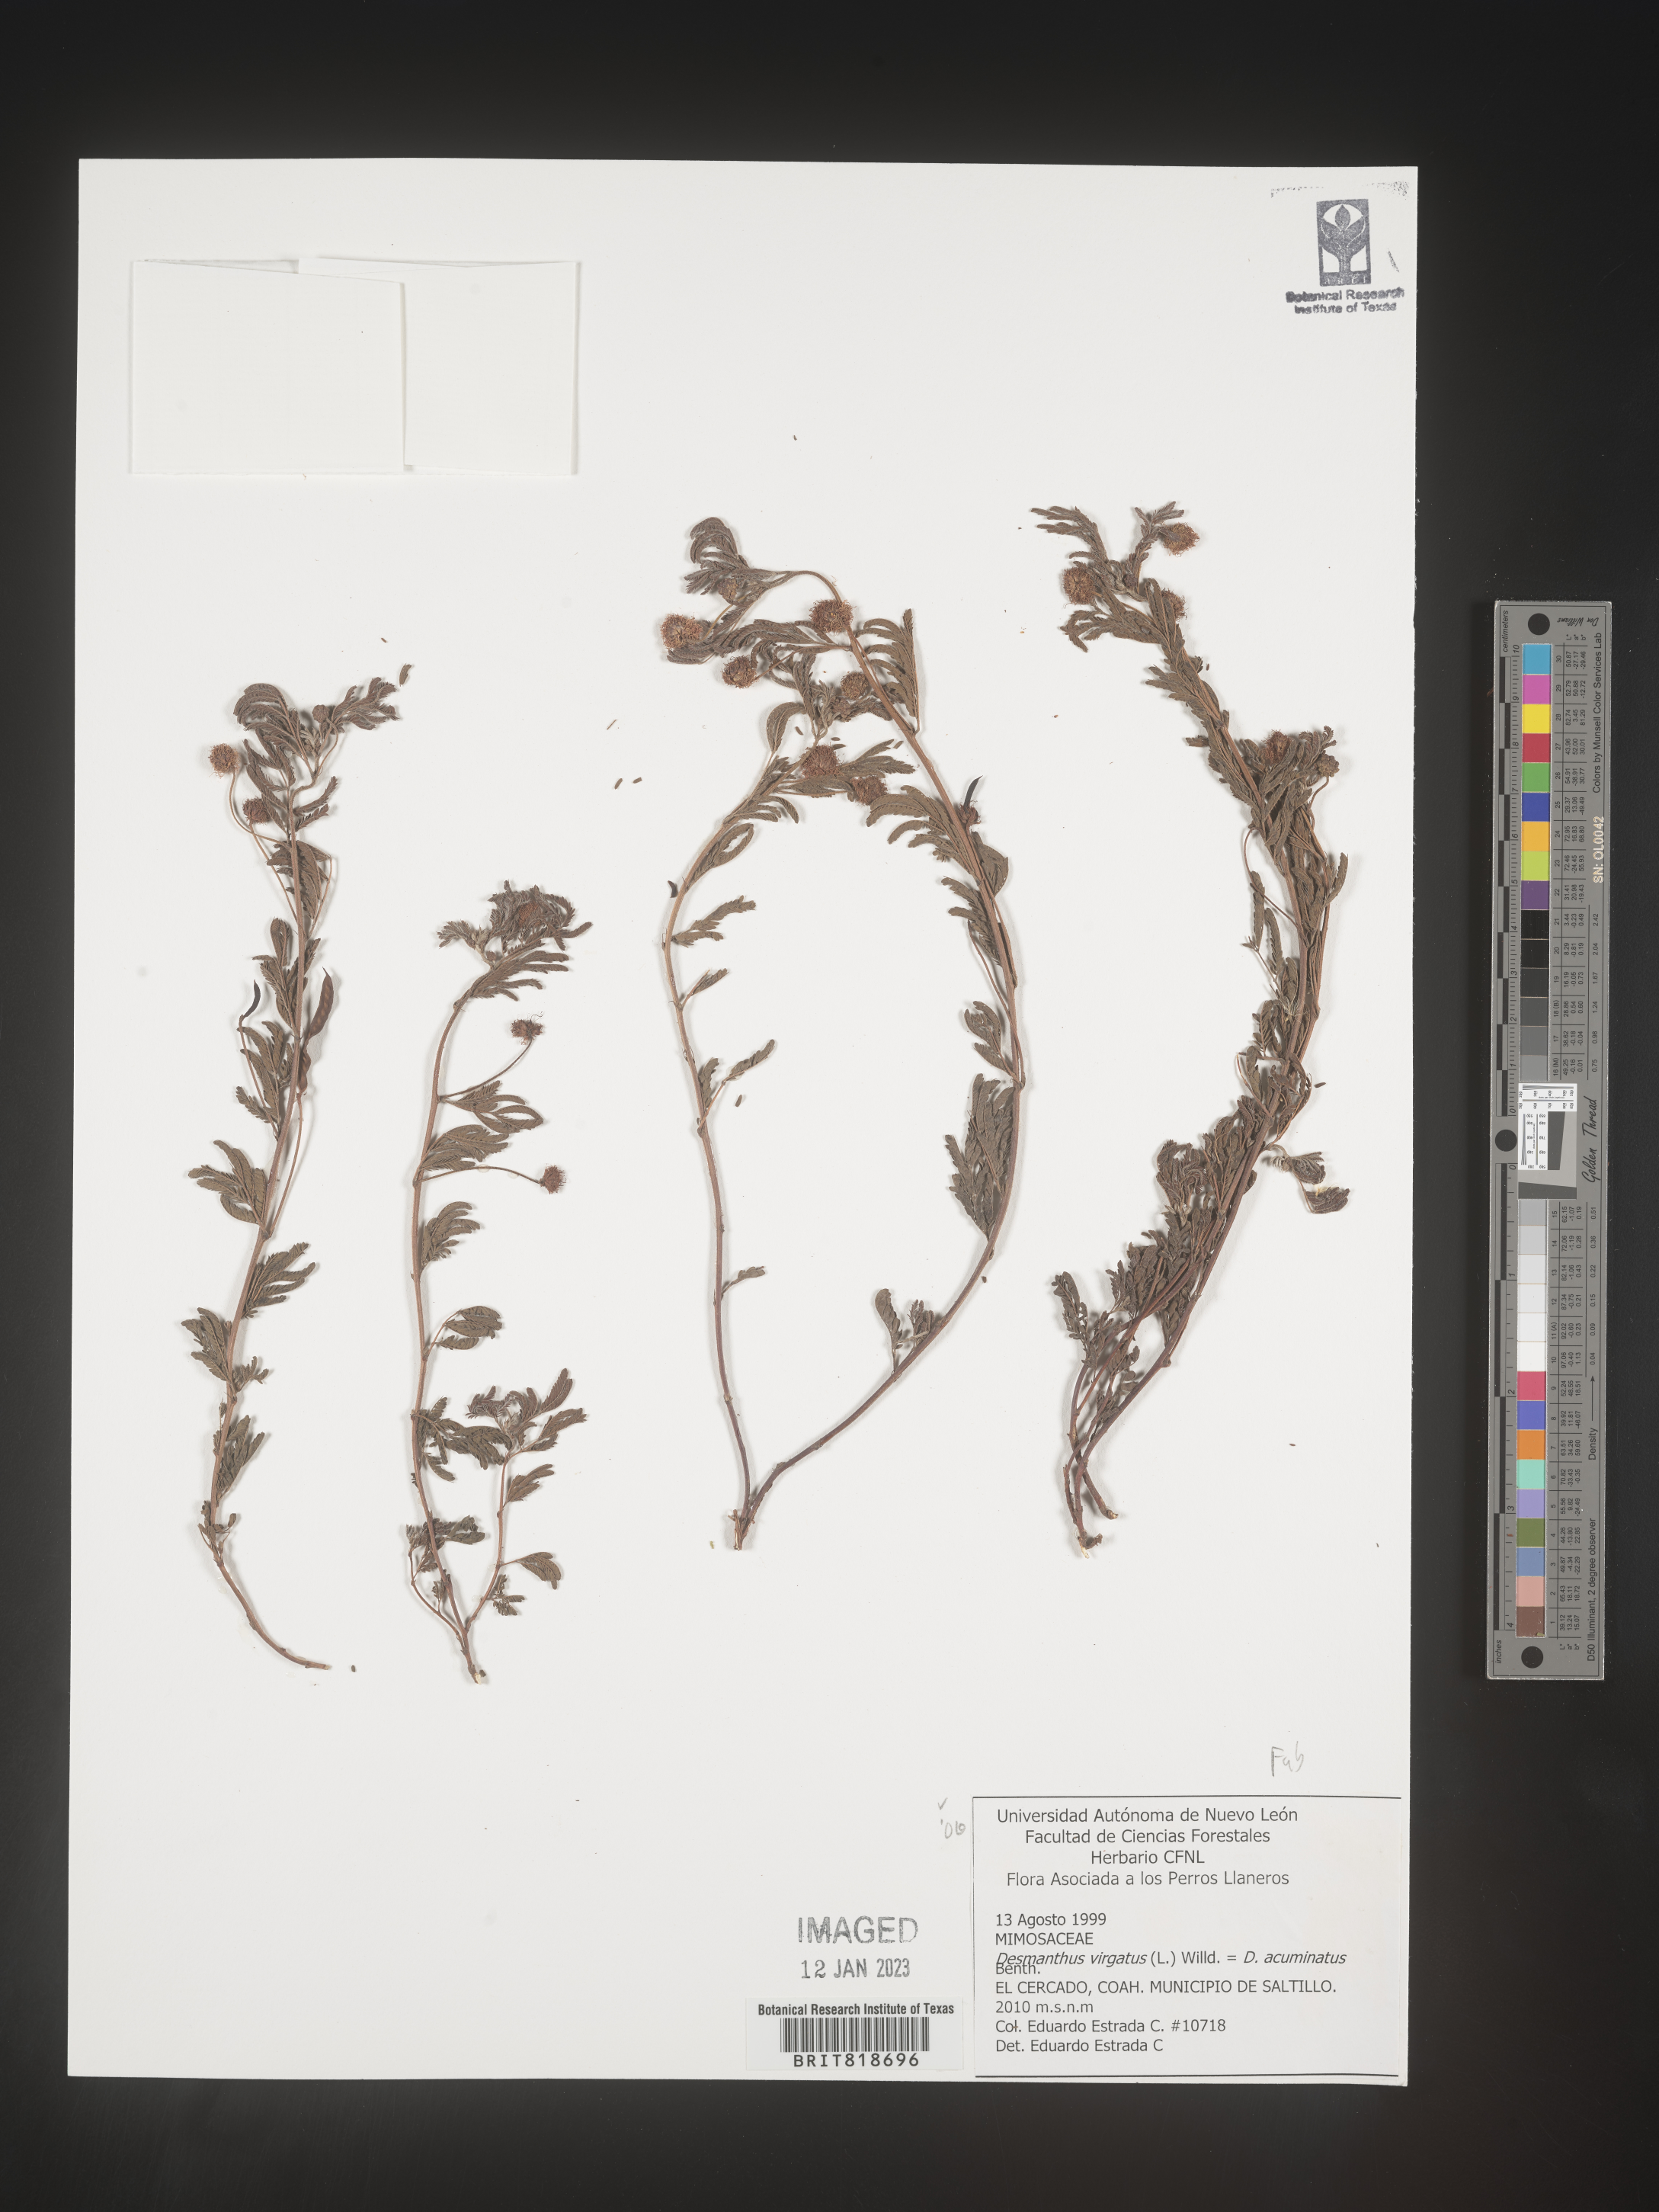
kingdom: Plantae
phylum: Tracheophyta
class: Magnoliopsida
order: Fabales
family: Fabaceae
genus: Desmanthus
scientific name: Desmanthus
